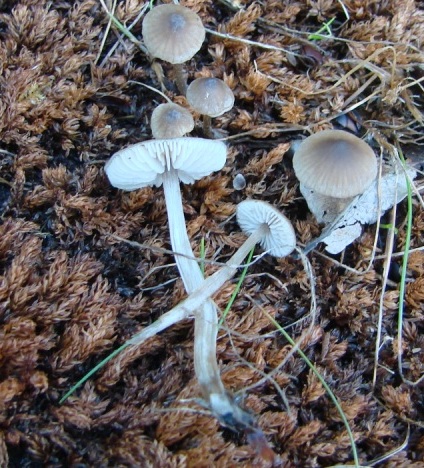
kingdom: Fungi
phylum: Basidiomycota
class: Agaricomycetes
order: Agaricales
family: Lyophyllaceae
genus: Sagaranella
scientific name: Sagaranella tylicolor
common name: kvælstof-gråblad
